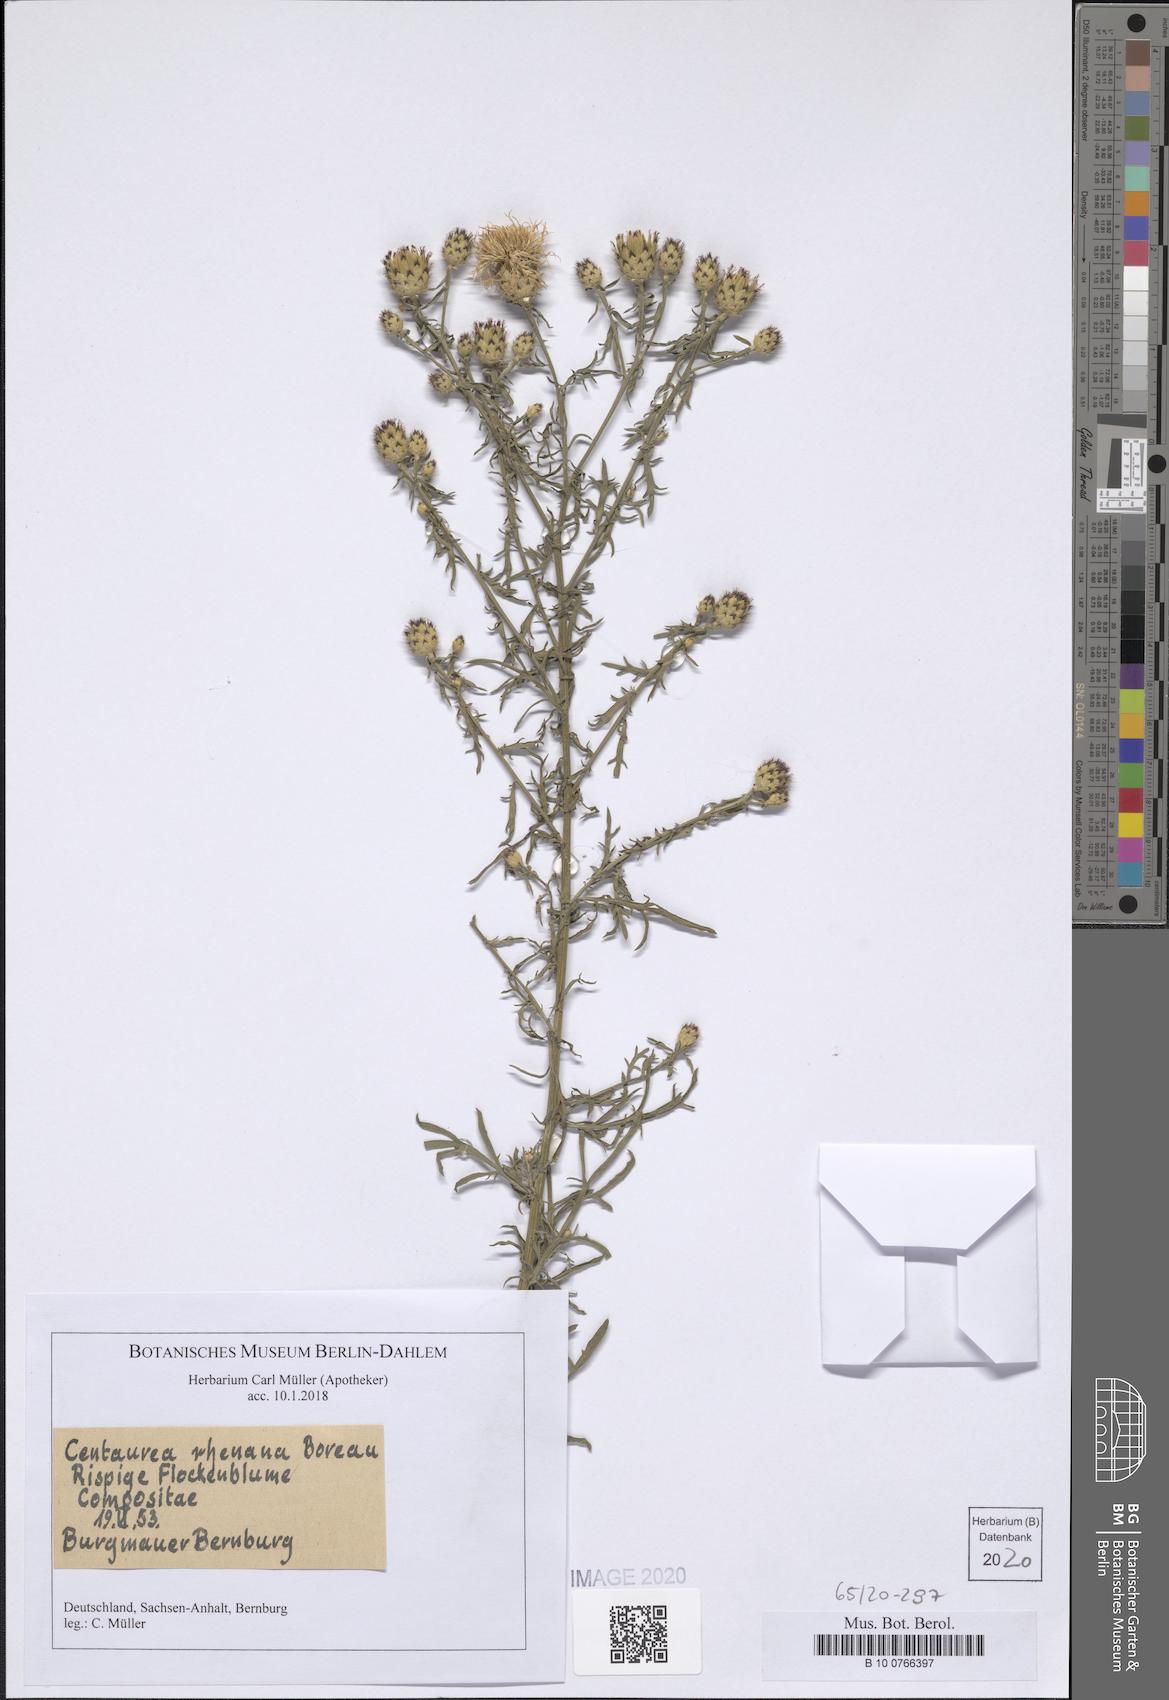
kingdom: Plantae
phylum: Tracheophyta
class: Magnoliopsida
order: Asterales
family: Asteraceae
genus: Centaurea
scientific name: Centaurea stoebe
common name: Spotted knapweed
